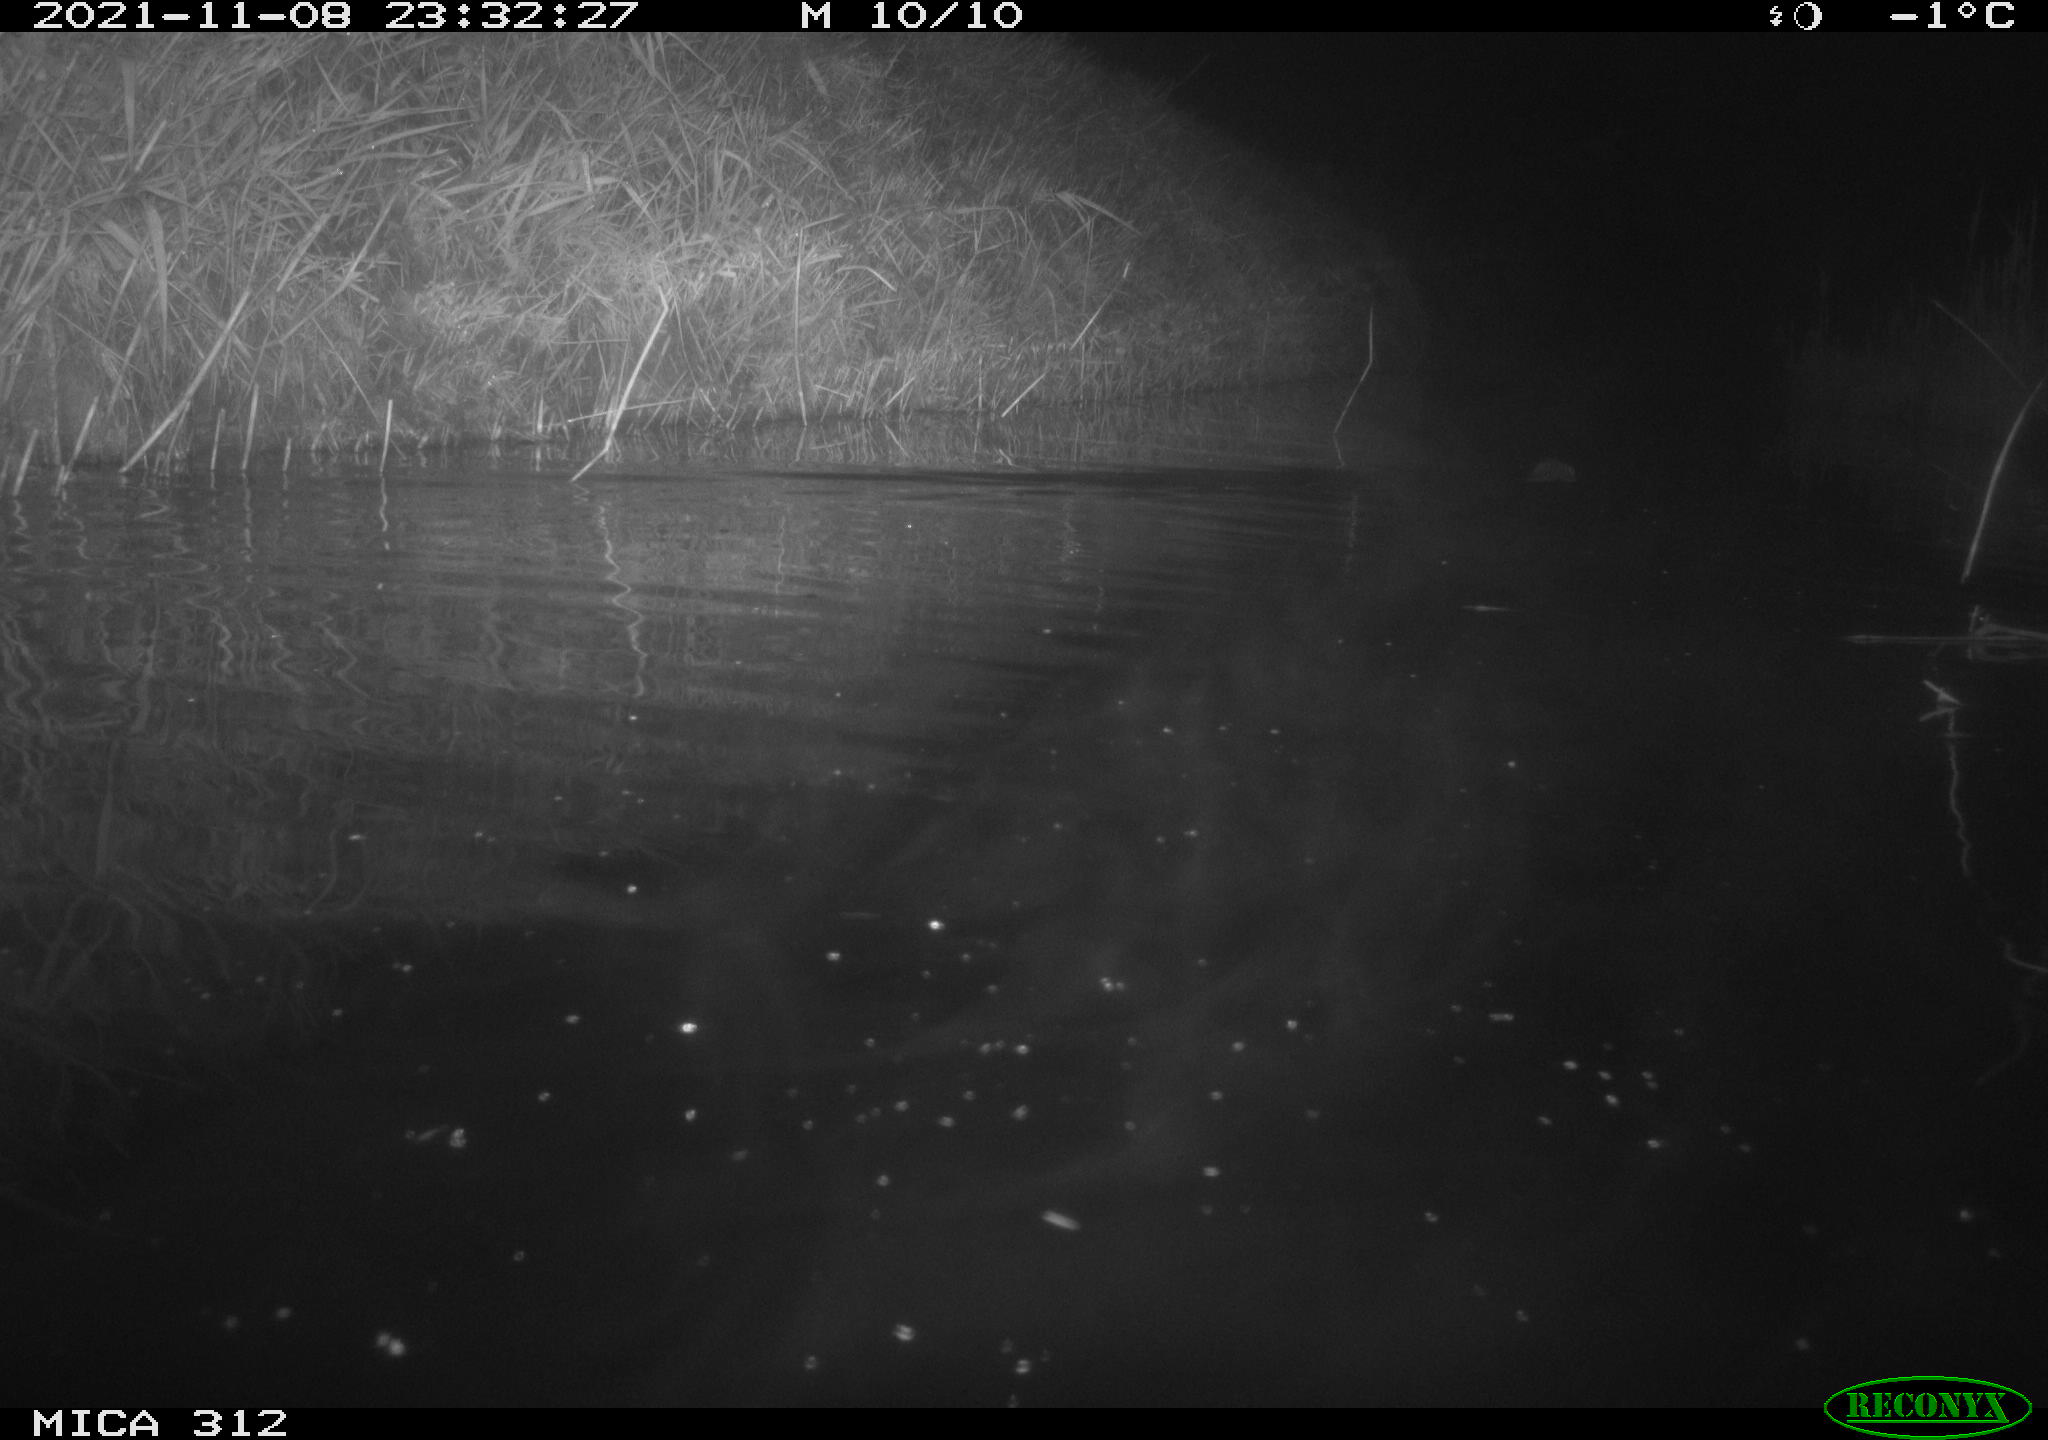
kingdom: Animalia
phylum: Chordata
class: Mammalia
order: Rodentia
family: Muridae
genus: Rattus
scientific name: Rattus norvegicus
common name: Brown rat
